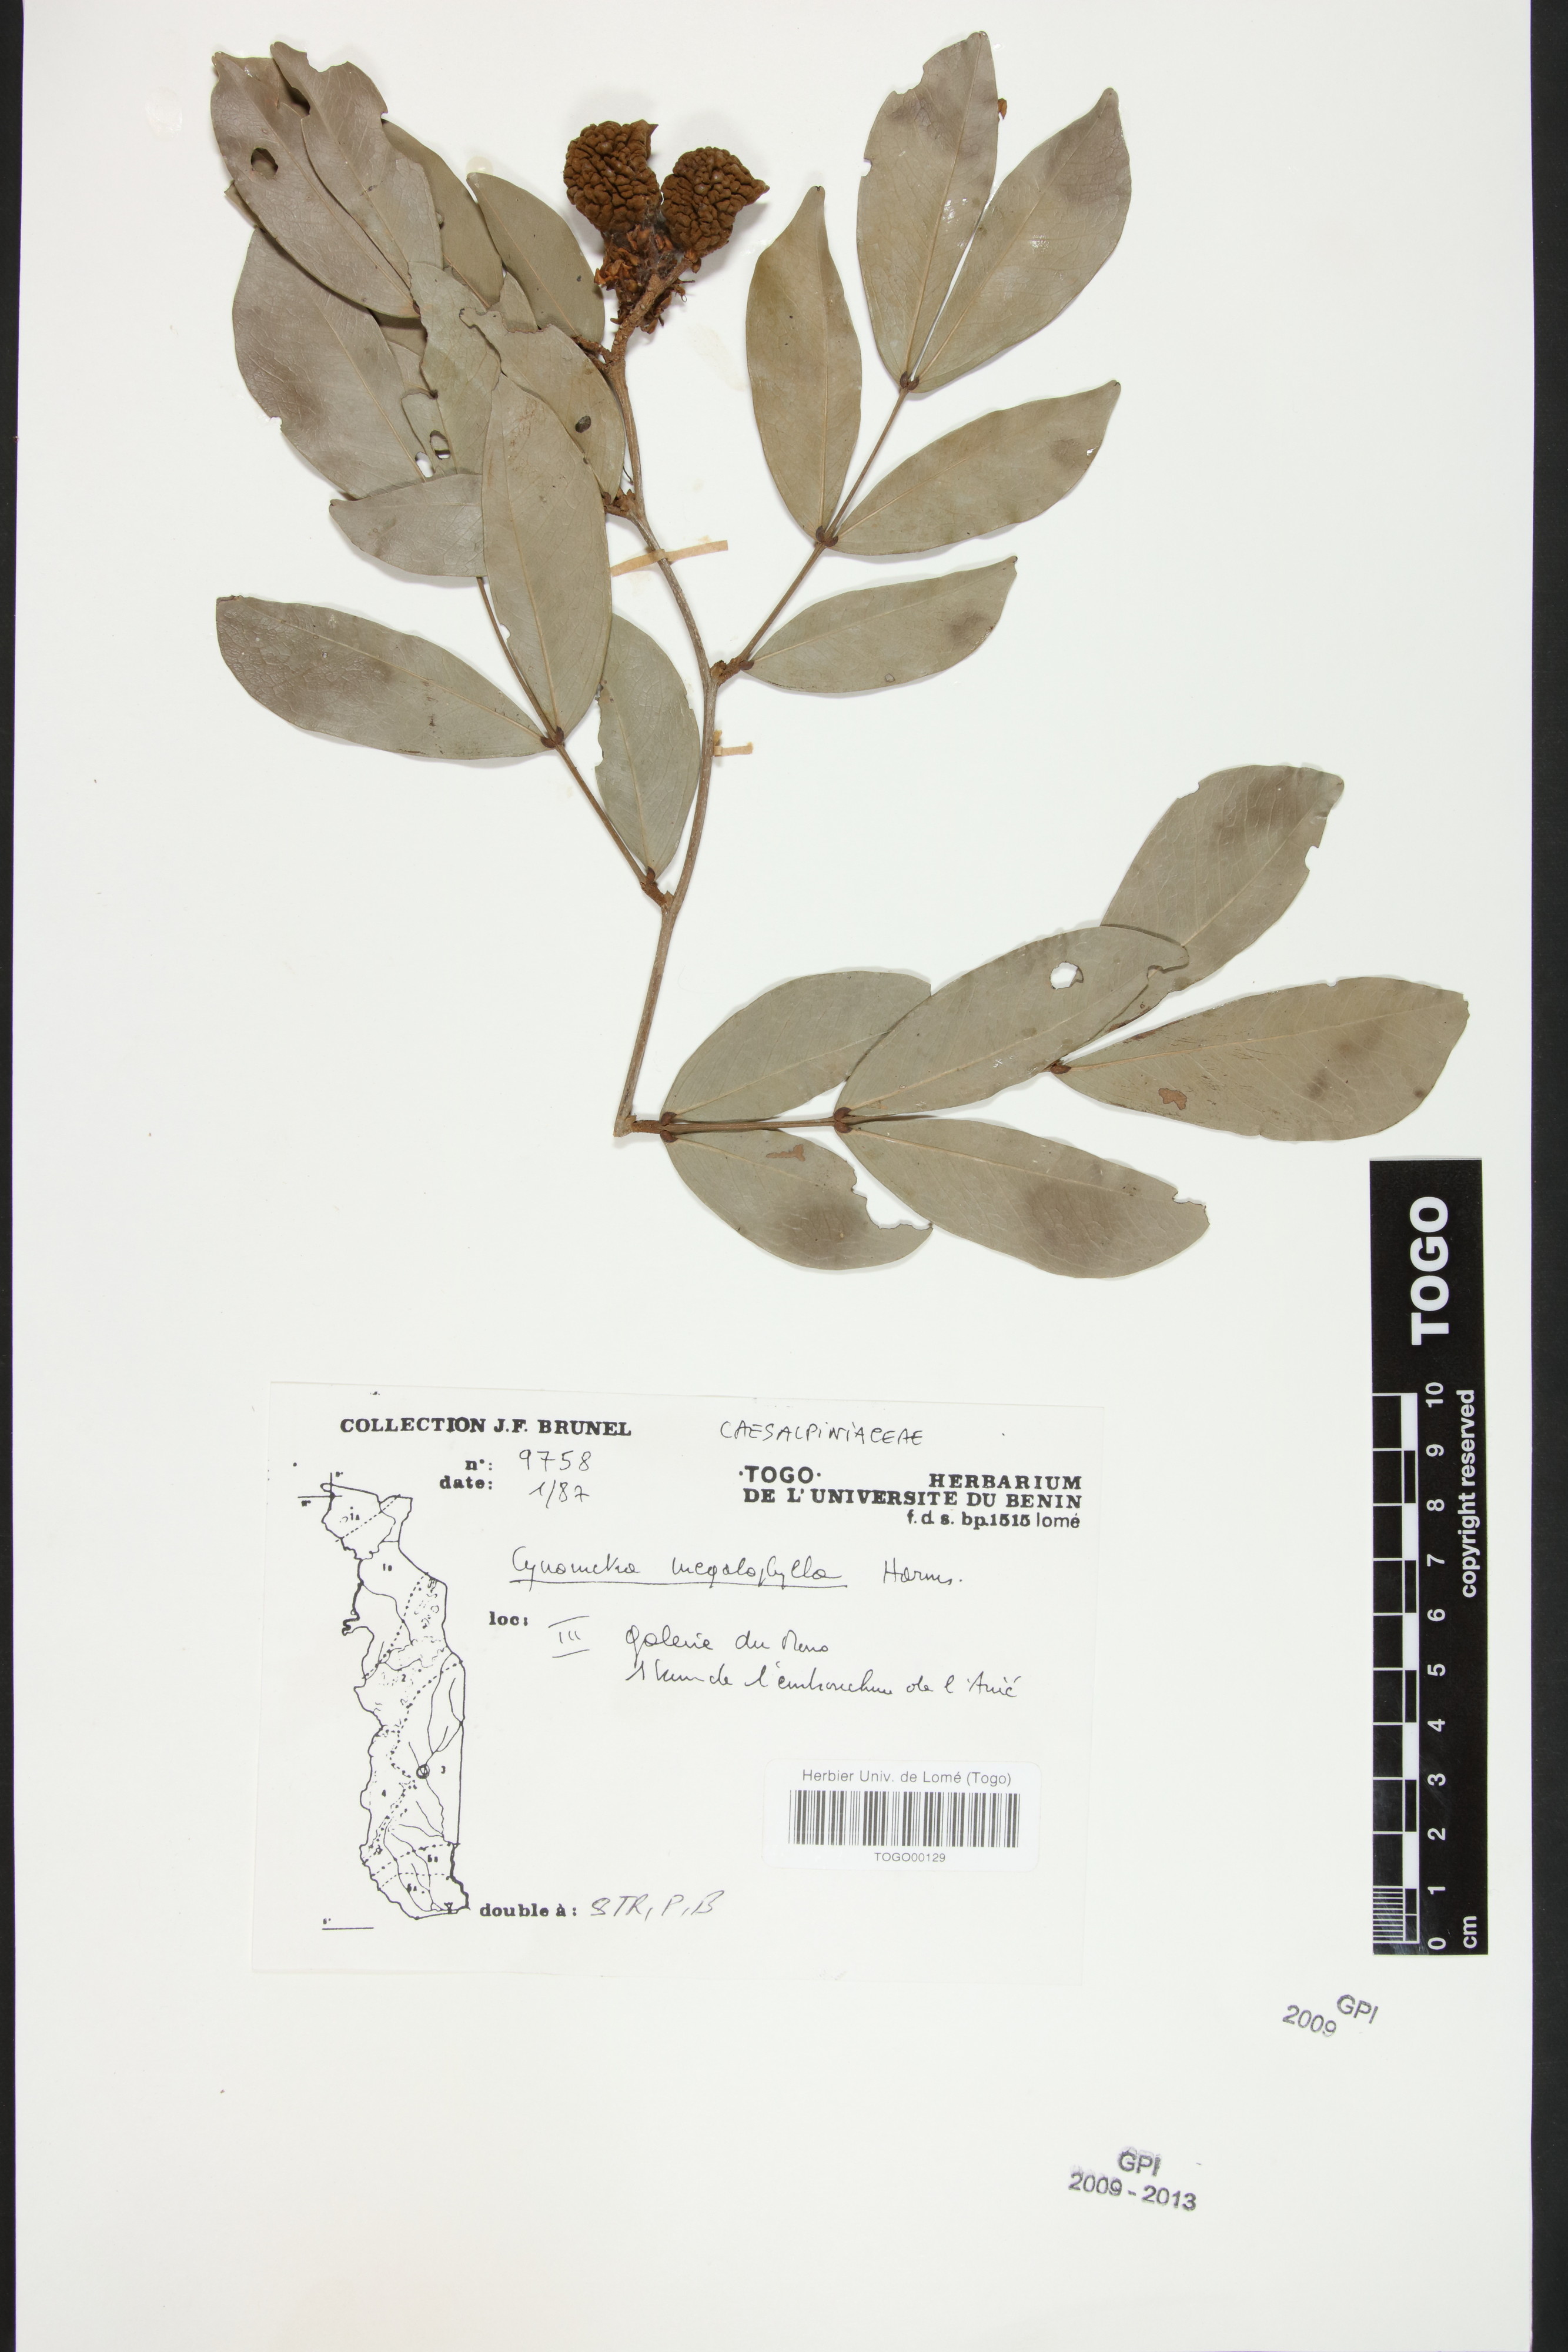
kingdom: Plantae
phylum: Tracheophyta
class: Magnoliopsida
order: Fabales
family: Fabaceae
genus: Cynometra
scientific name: Cynometra megalophylla
